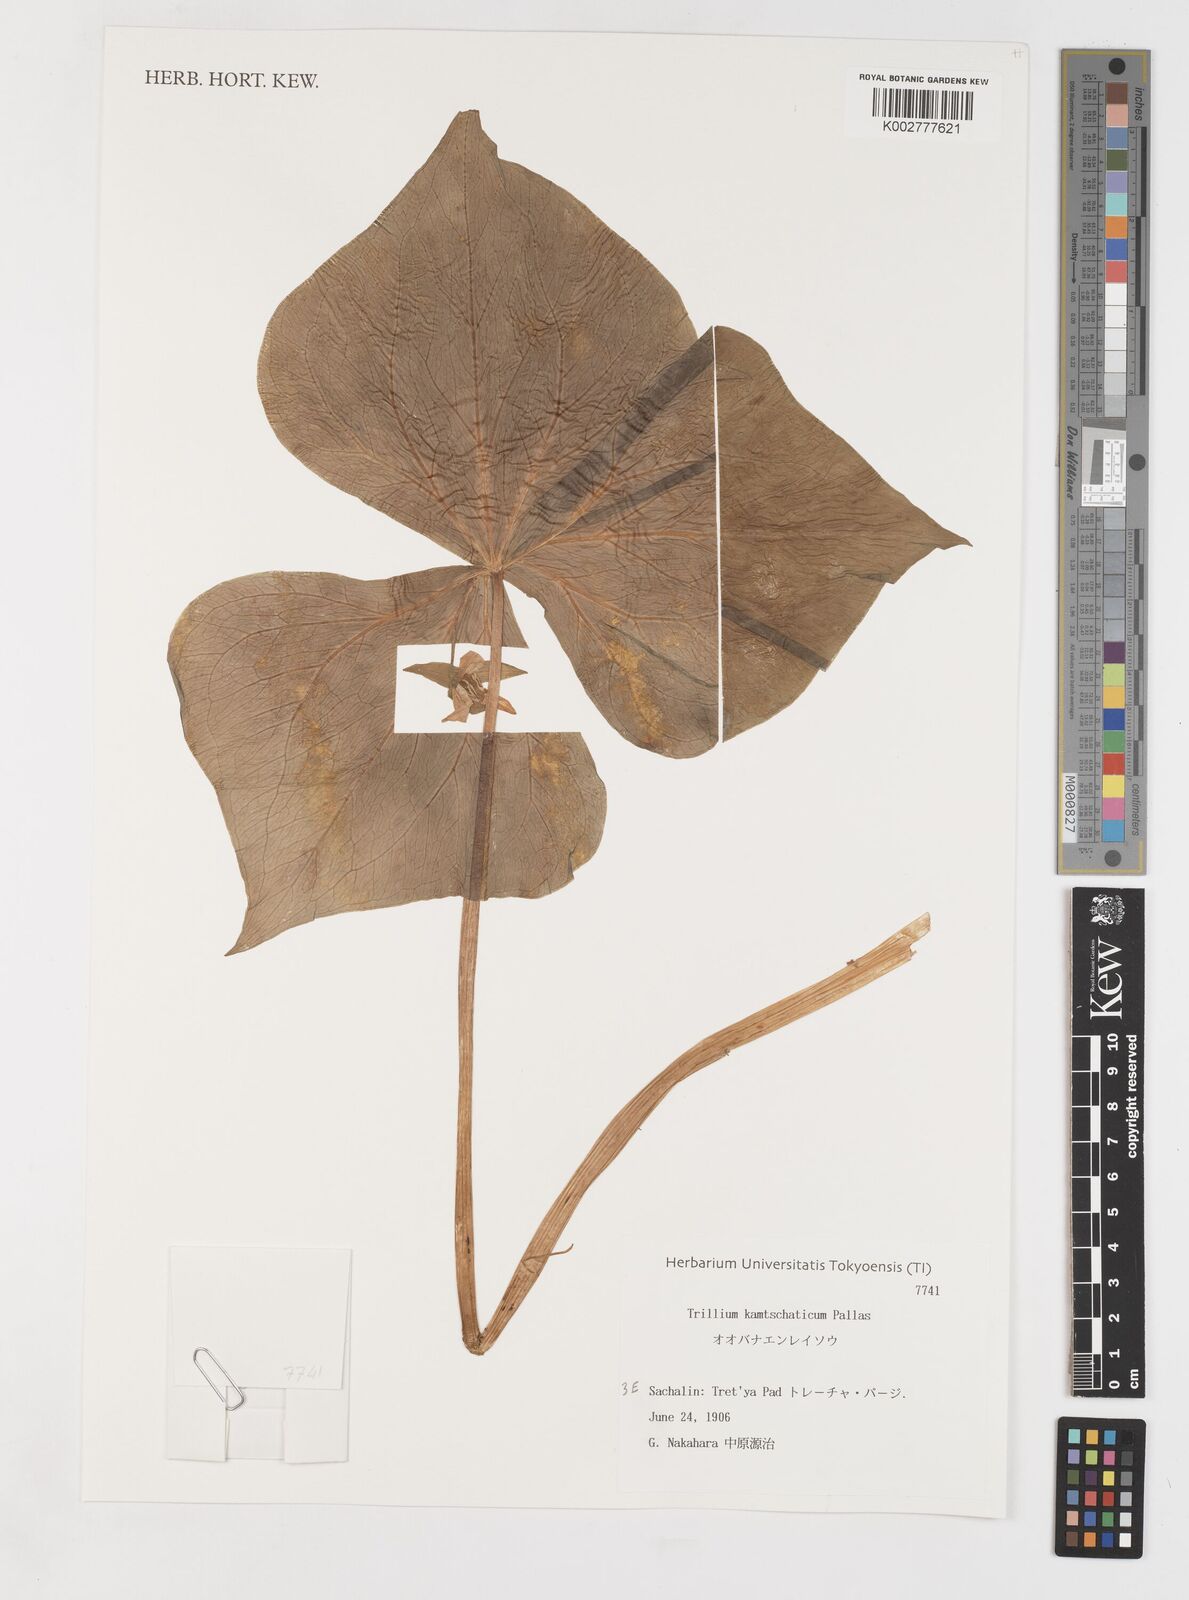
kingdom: Plantae
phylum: Tracheophyta
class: Liliopsida
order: Liliales
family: Melanthiaceae
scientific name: Melanthiaceae
